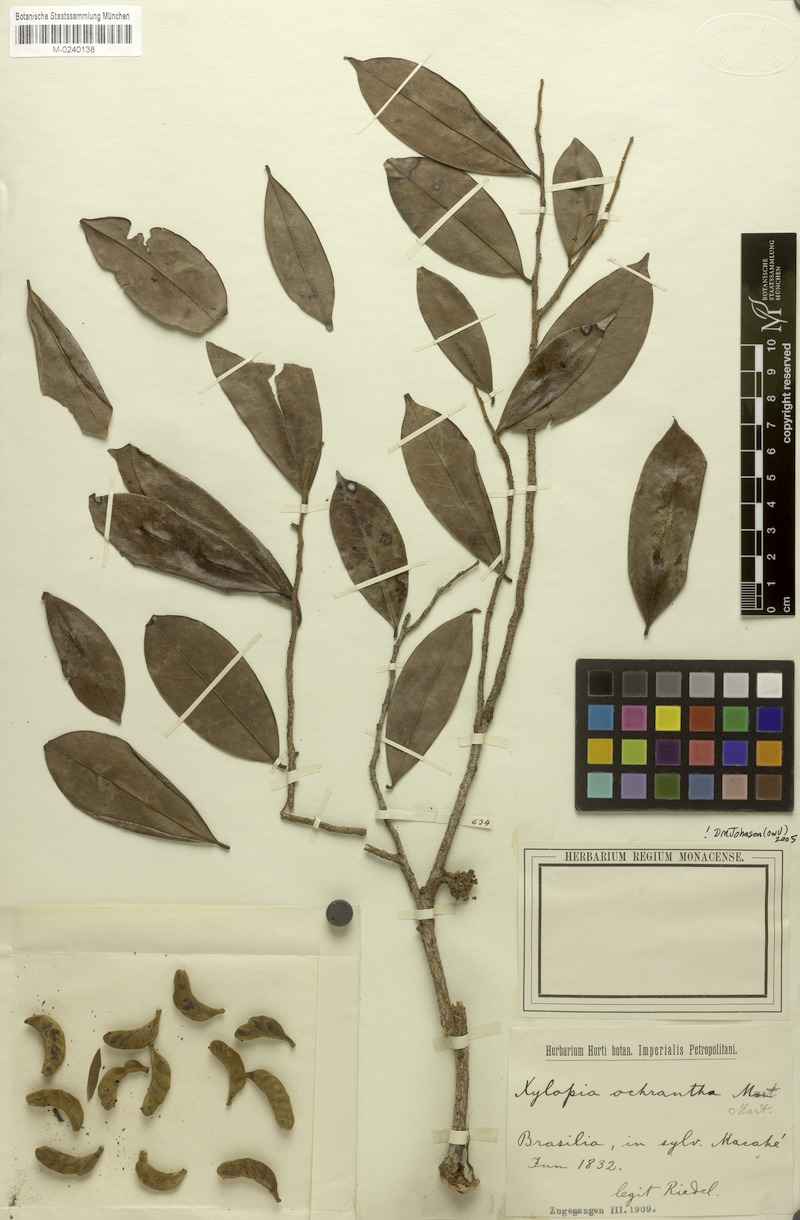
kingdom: Plantae
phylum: Tracheophyta
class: Magnoliopsida
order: Magnoliales
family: Annonaceae
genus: Xylopia
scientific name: Xylopia ochrantha
